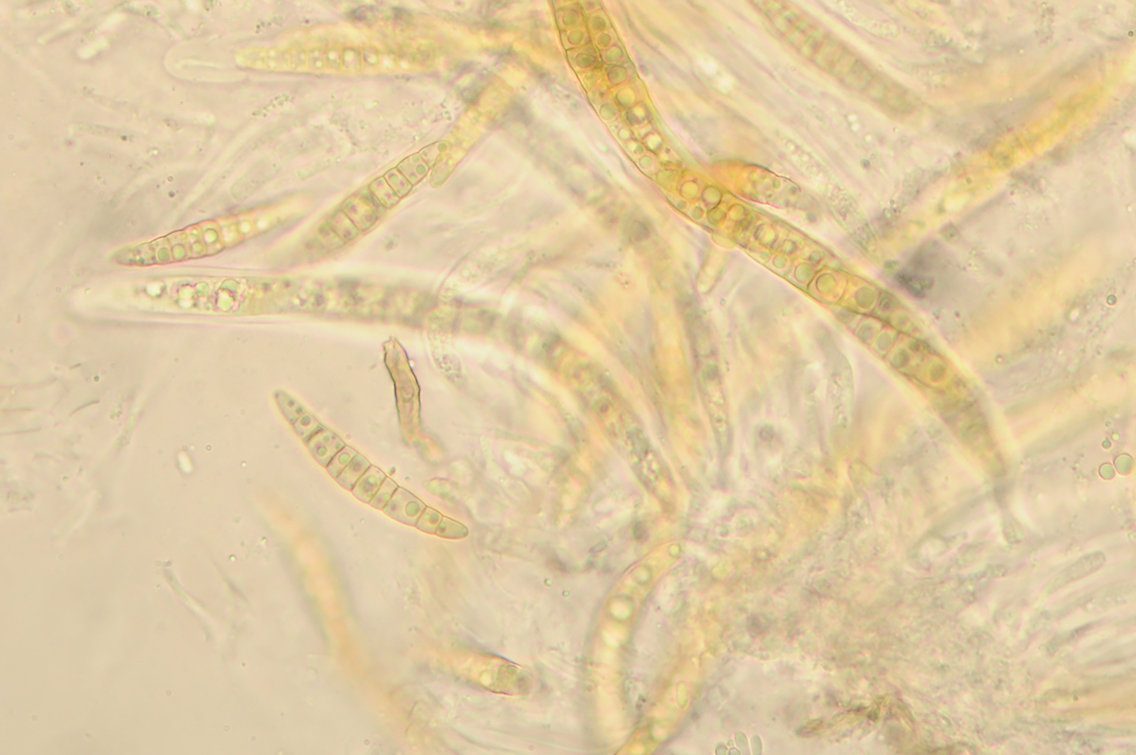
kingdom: Fungi
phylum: Ascomycota
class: Dothideomycetes
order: Pleosporales
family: Leptosphaeriaceae
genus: Leptosphaeria
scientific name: Leptosphaeria acuta
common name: spids kulkegle
